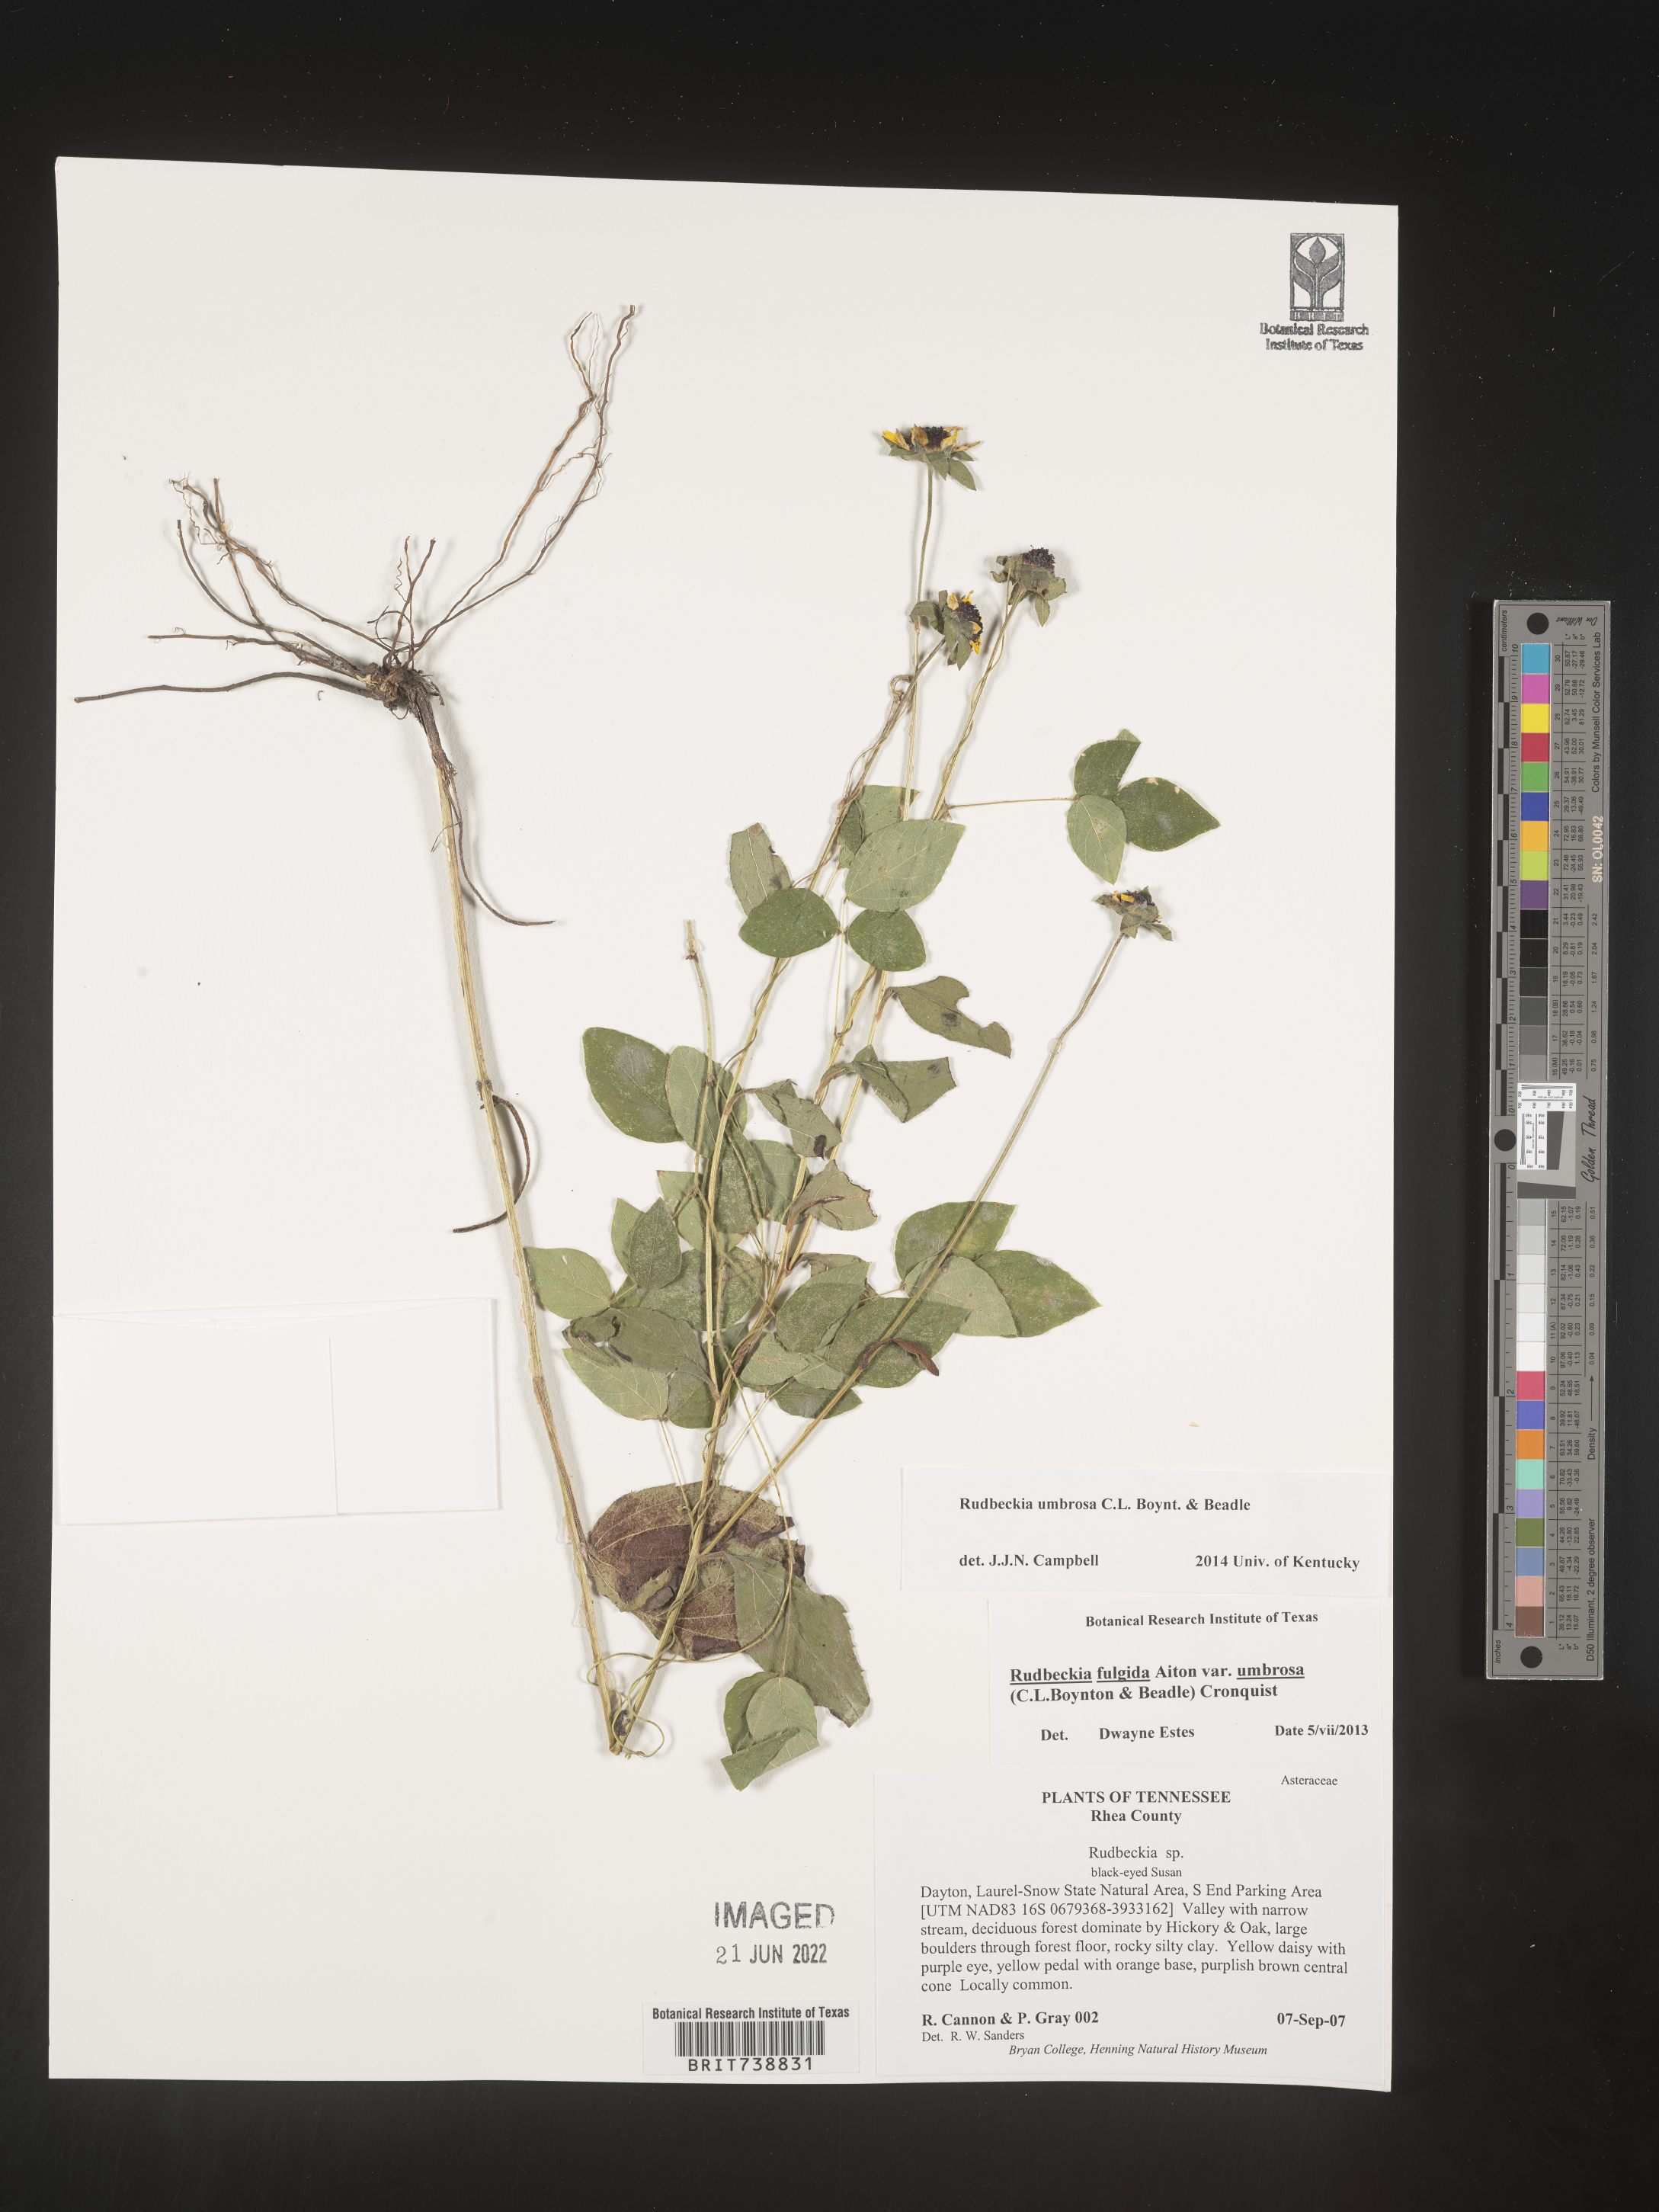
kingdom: Plantae
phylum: Tracheophyta
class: Magnoliopsida
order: Asterales
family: Asteraceae
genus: Rudbeckia
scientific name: Rudbeckia fulgida
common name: Perennial coneflower
